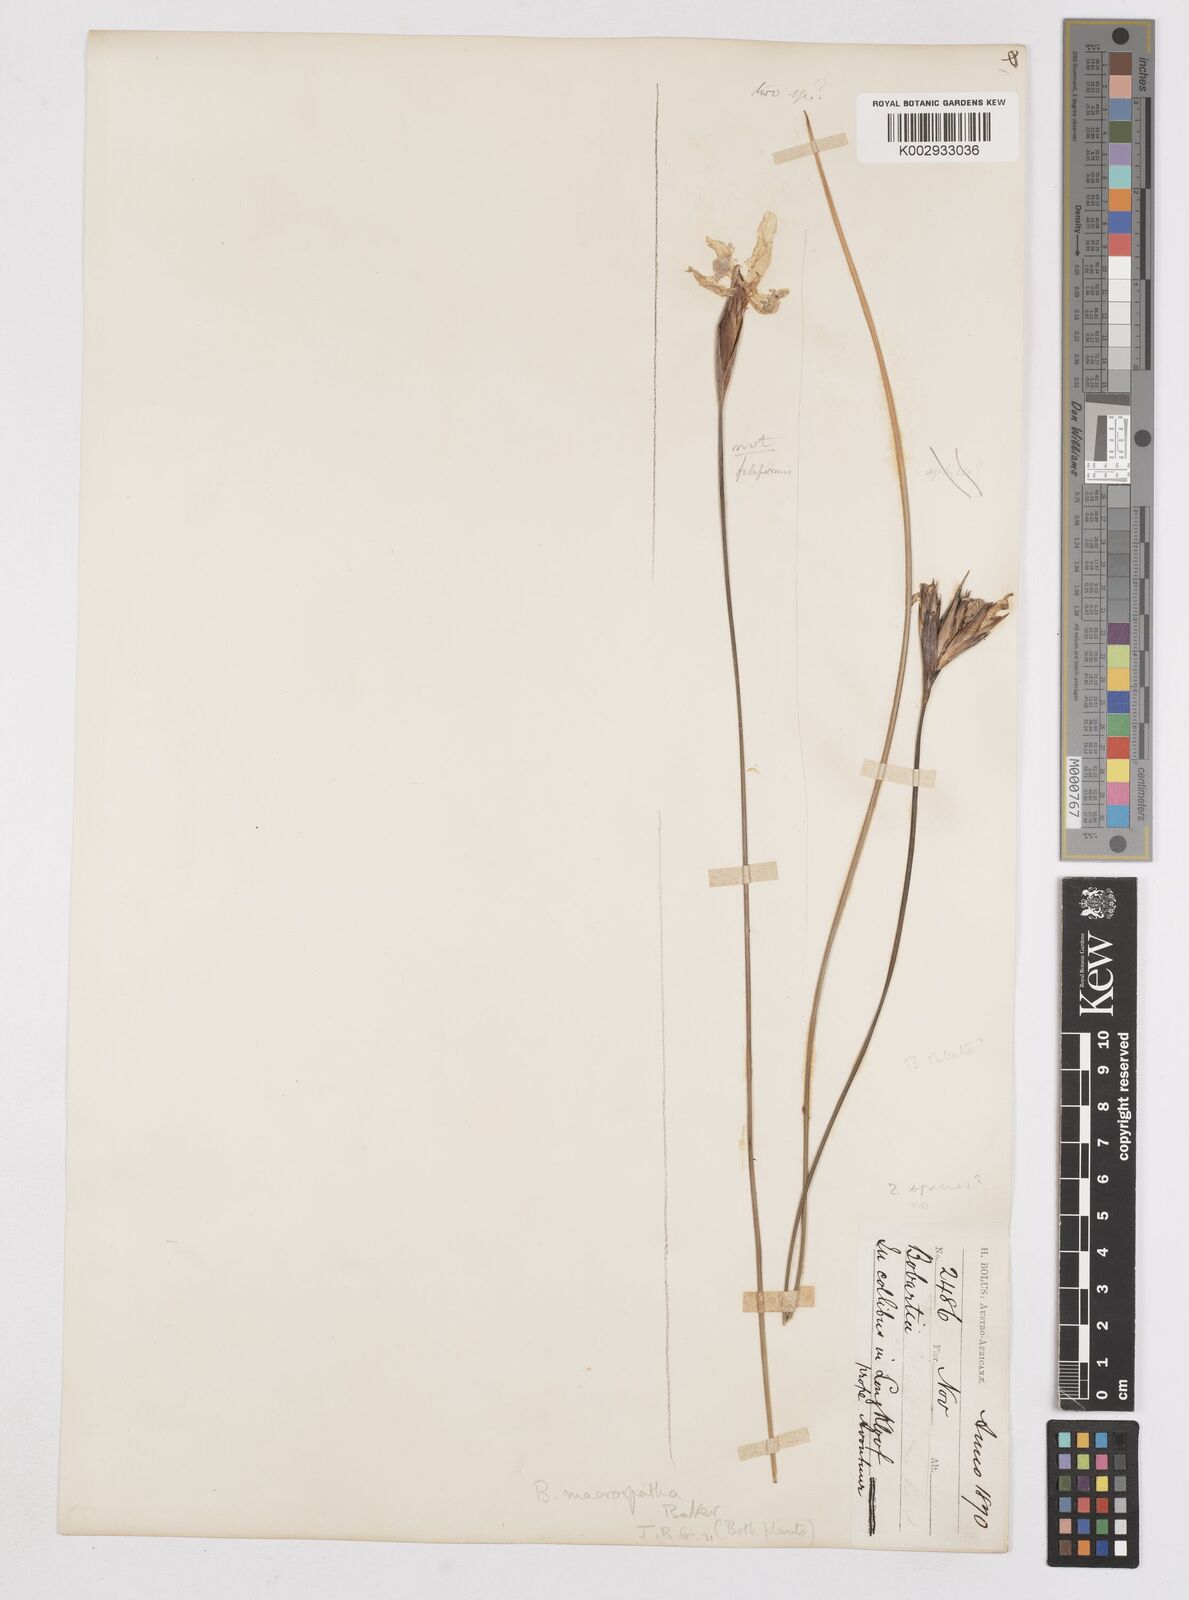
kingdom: Plantae
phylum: Tracheophyta
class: Liliopsida
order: Asparagales
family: Iridaceae
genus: Bobartia
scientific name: Bobartia macrospatha
